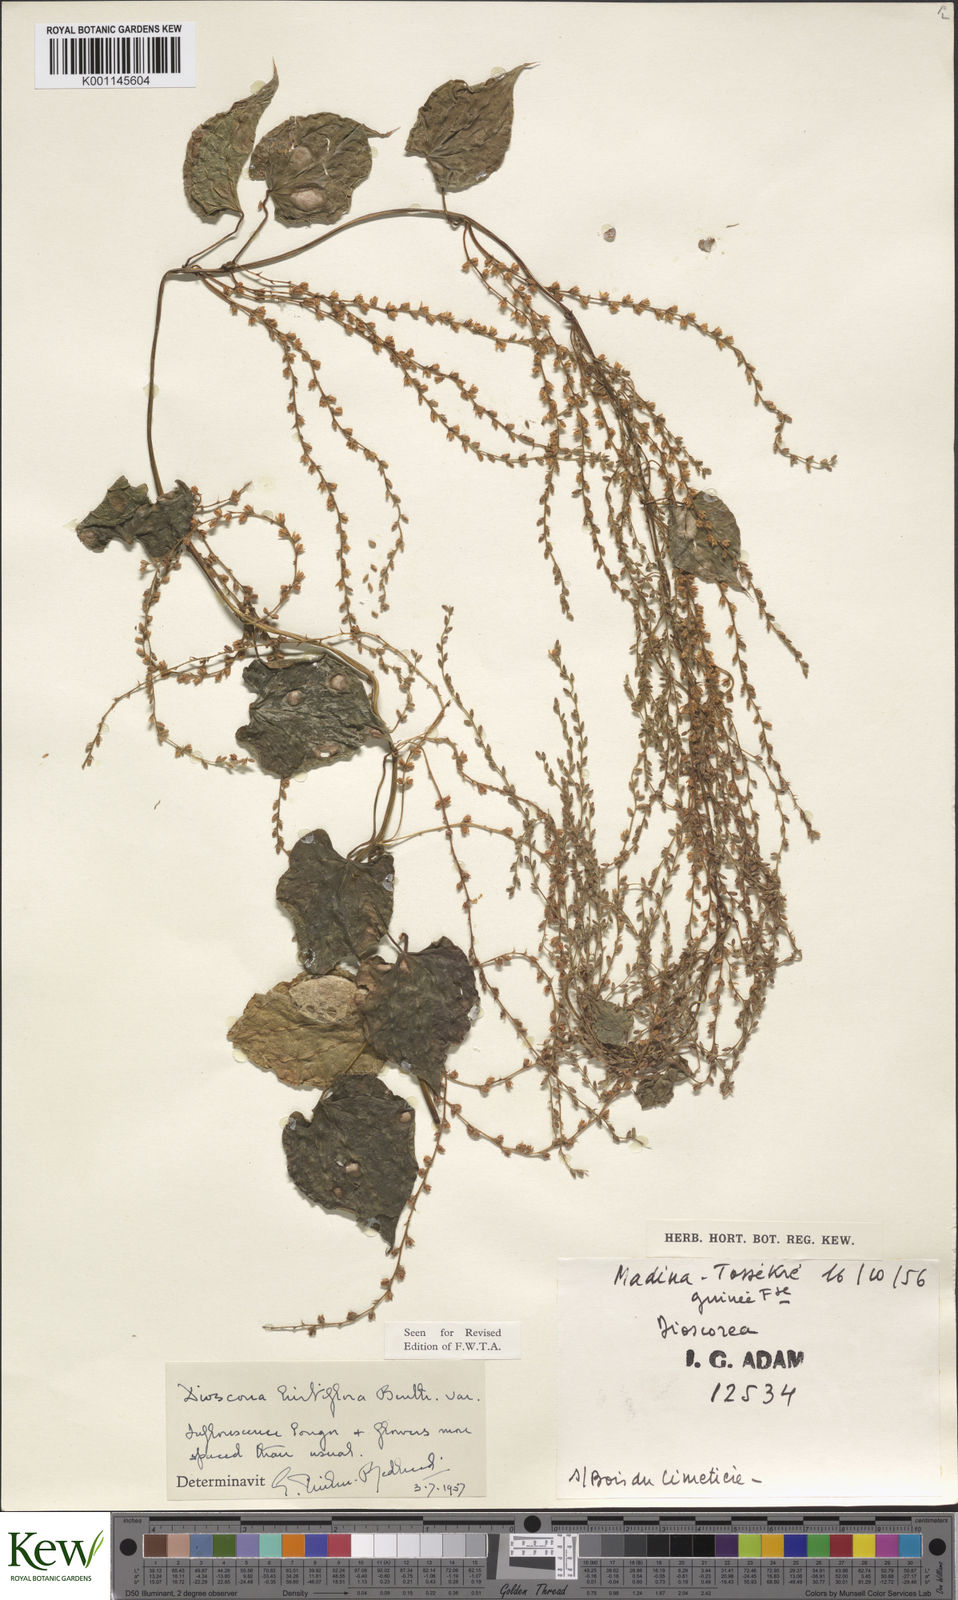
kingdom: Plantae
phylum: Tracheophyta
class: Liliopsida
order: Dioscoreales
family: Dioscoreaceae
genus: Dioscorea
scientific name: Dioscorea hirtiflora
